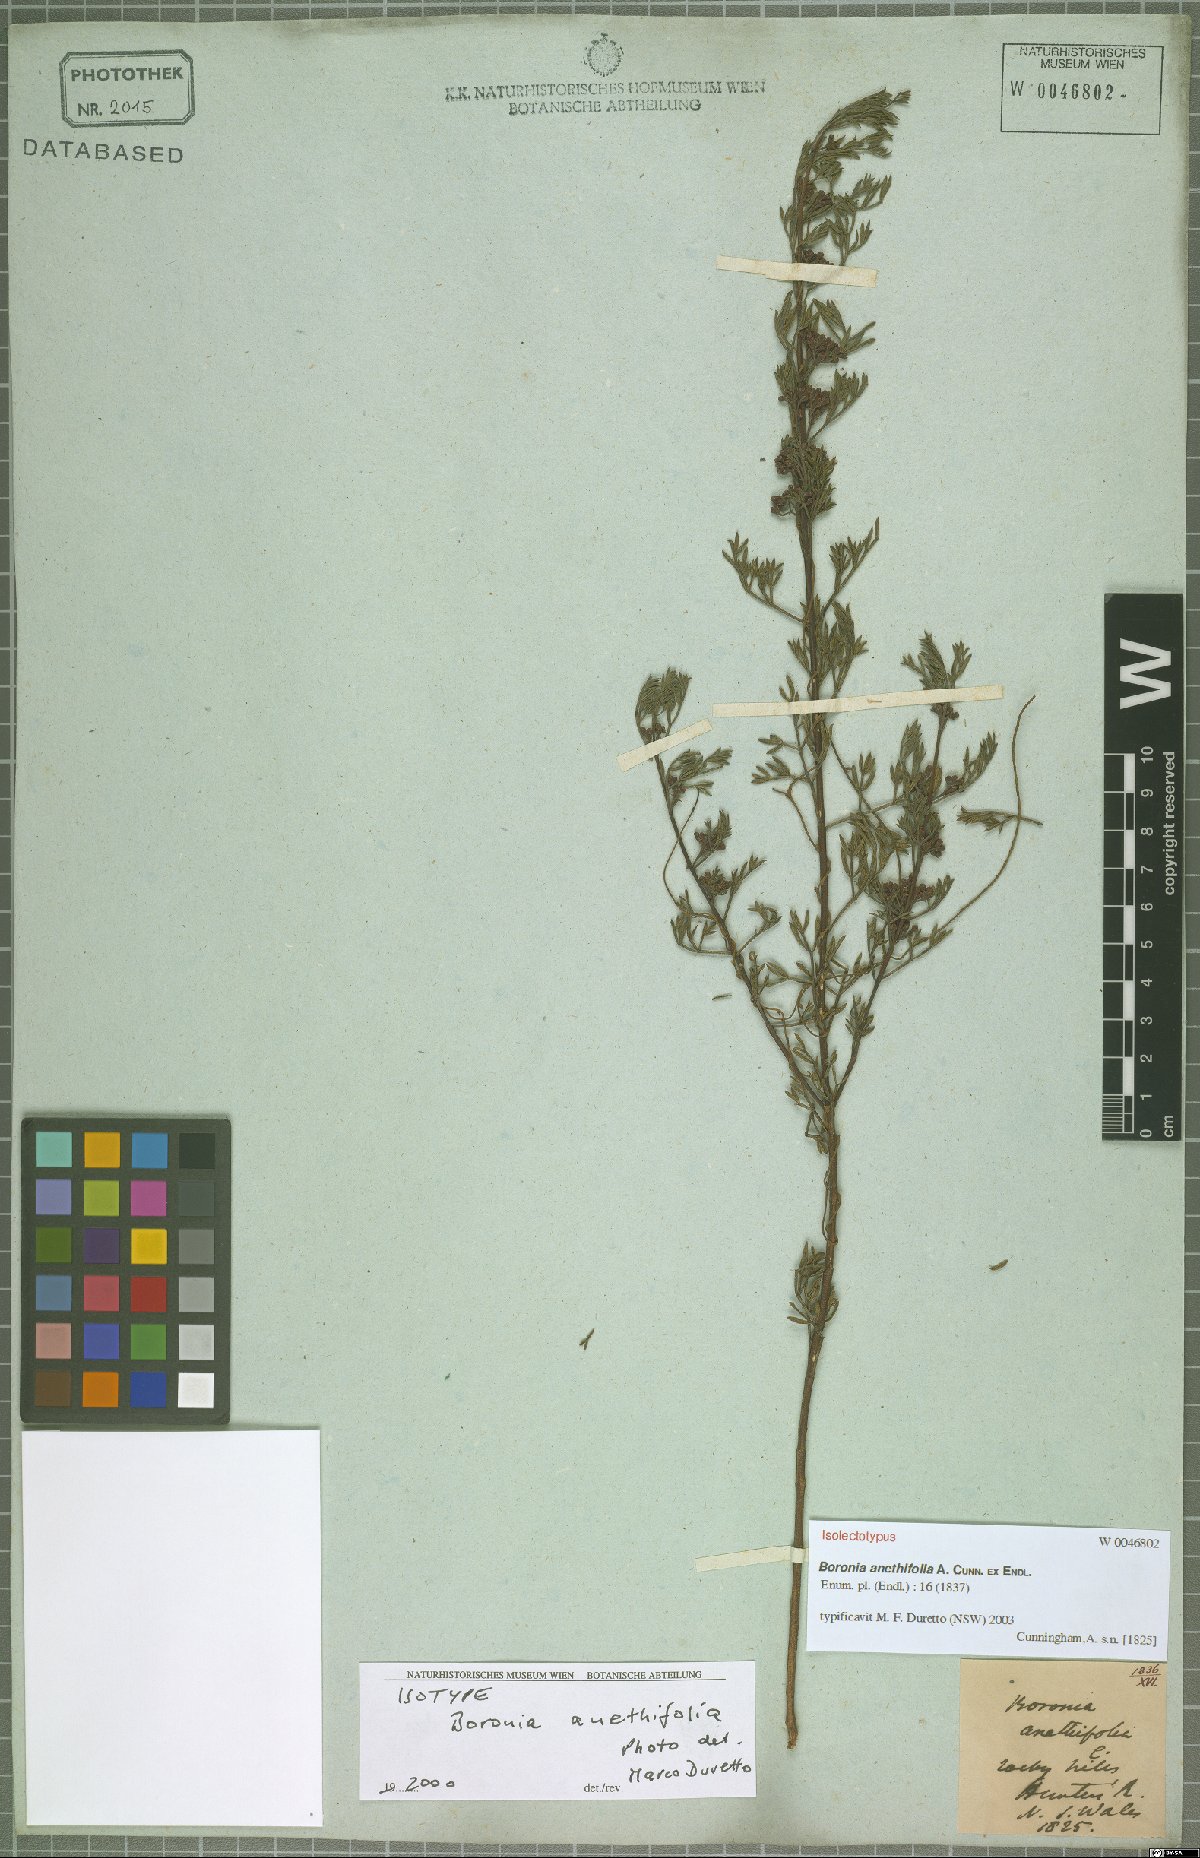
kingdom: Plantae
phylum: Tracheophyta
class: Magnoliopsida
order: Sapindales
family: Rutaceae
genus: Cyanothamnus
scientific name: Cyanothamnus quadrangulus
